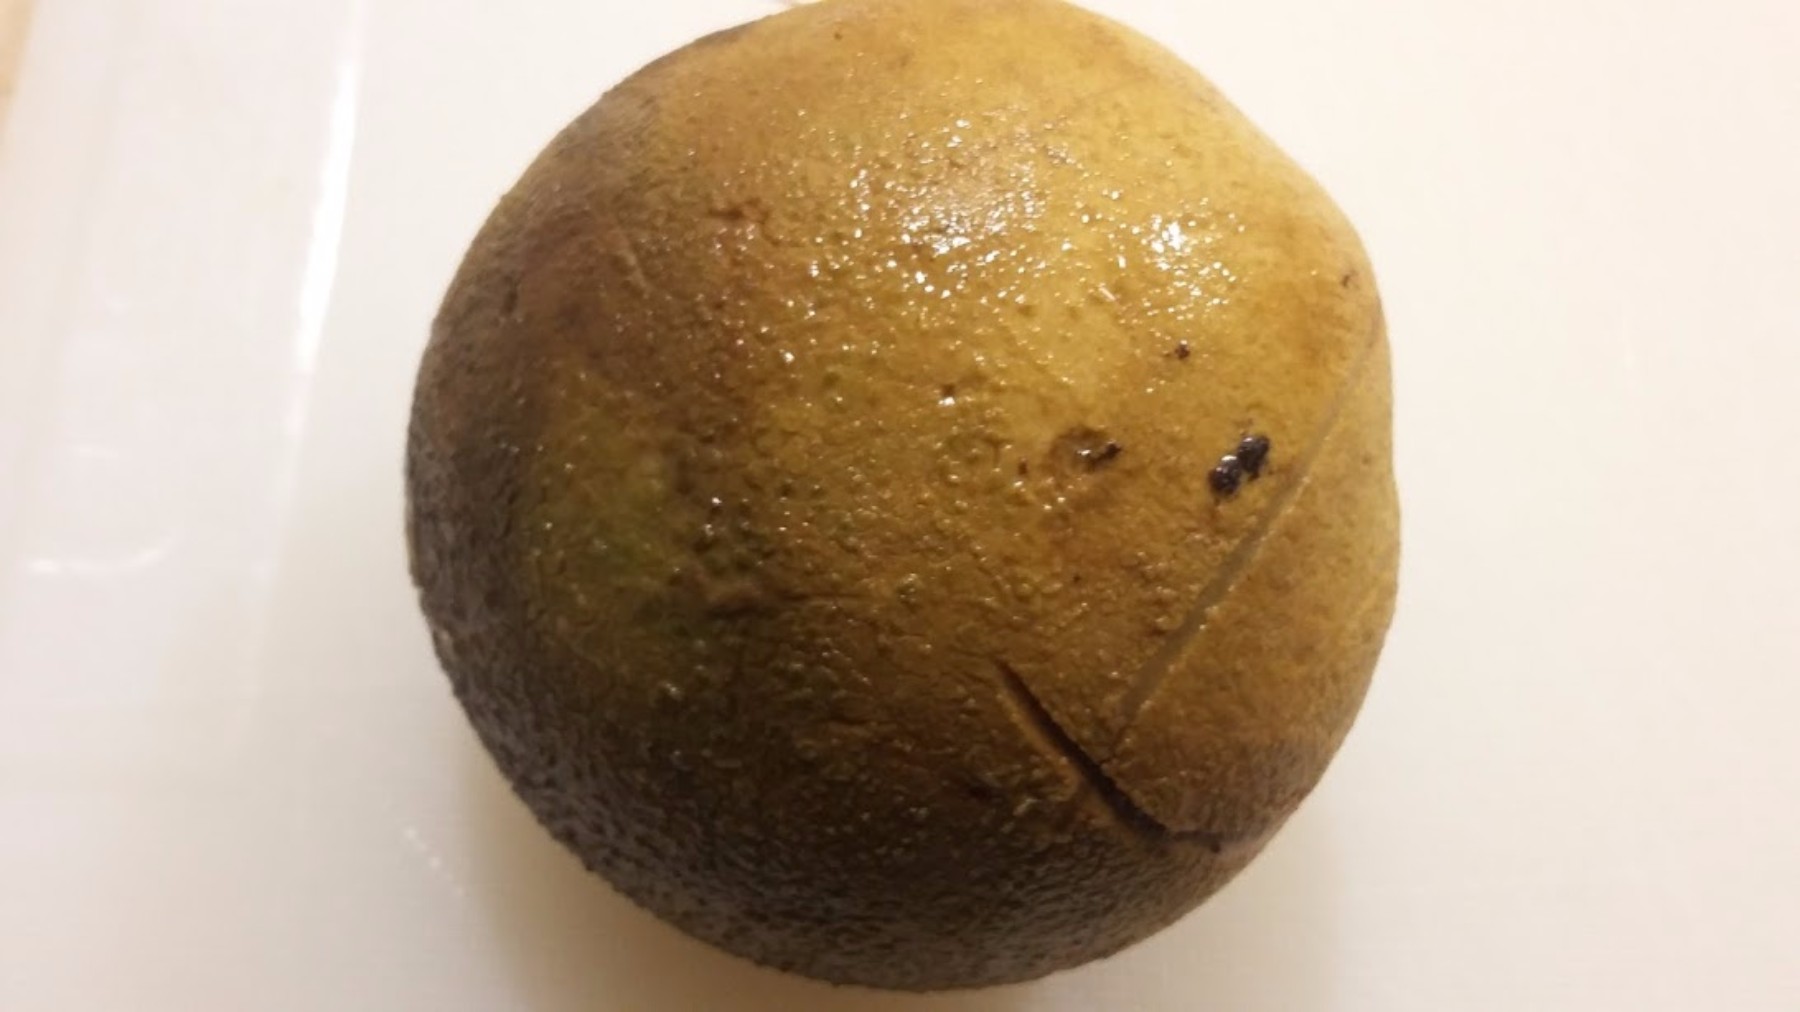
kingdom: Fungi
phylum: Basidiomycota
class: Agaricomycetes
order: Boletales
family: Sclerodermataceae
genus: Scleroderma
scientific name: Scleroderma citrinum
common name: almindelig bruskbold
